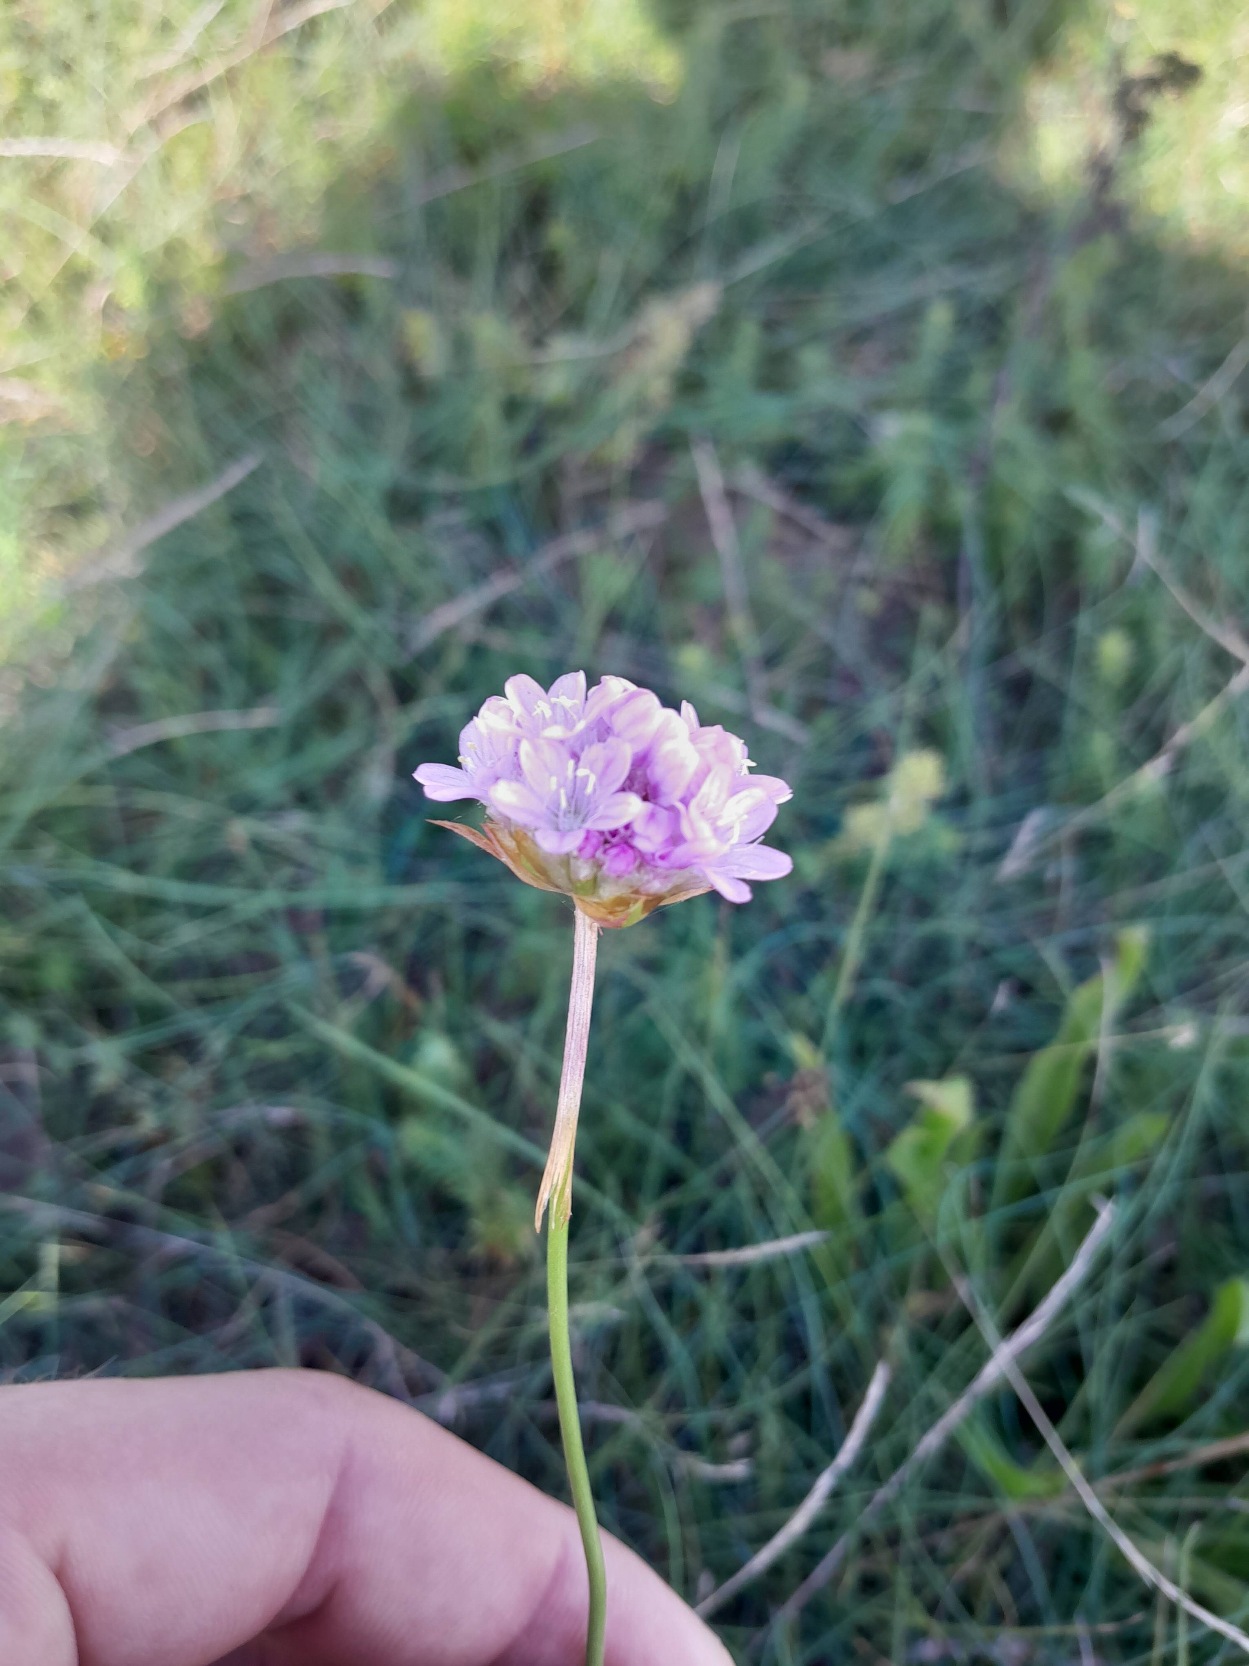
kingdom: Plantae
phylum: Tracheophyta
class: Magnoliopsida
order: Caryophyllales
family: Plumbaginaceae
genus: Armeria
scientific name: Armeria maritima
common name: Engelskgræs
